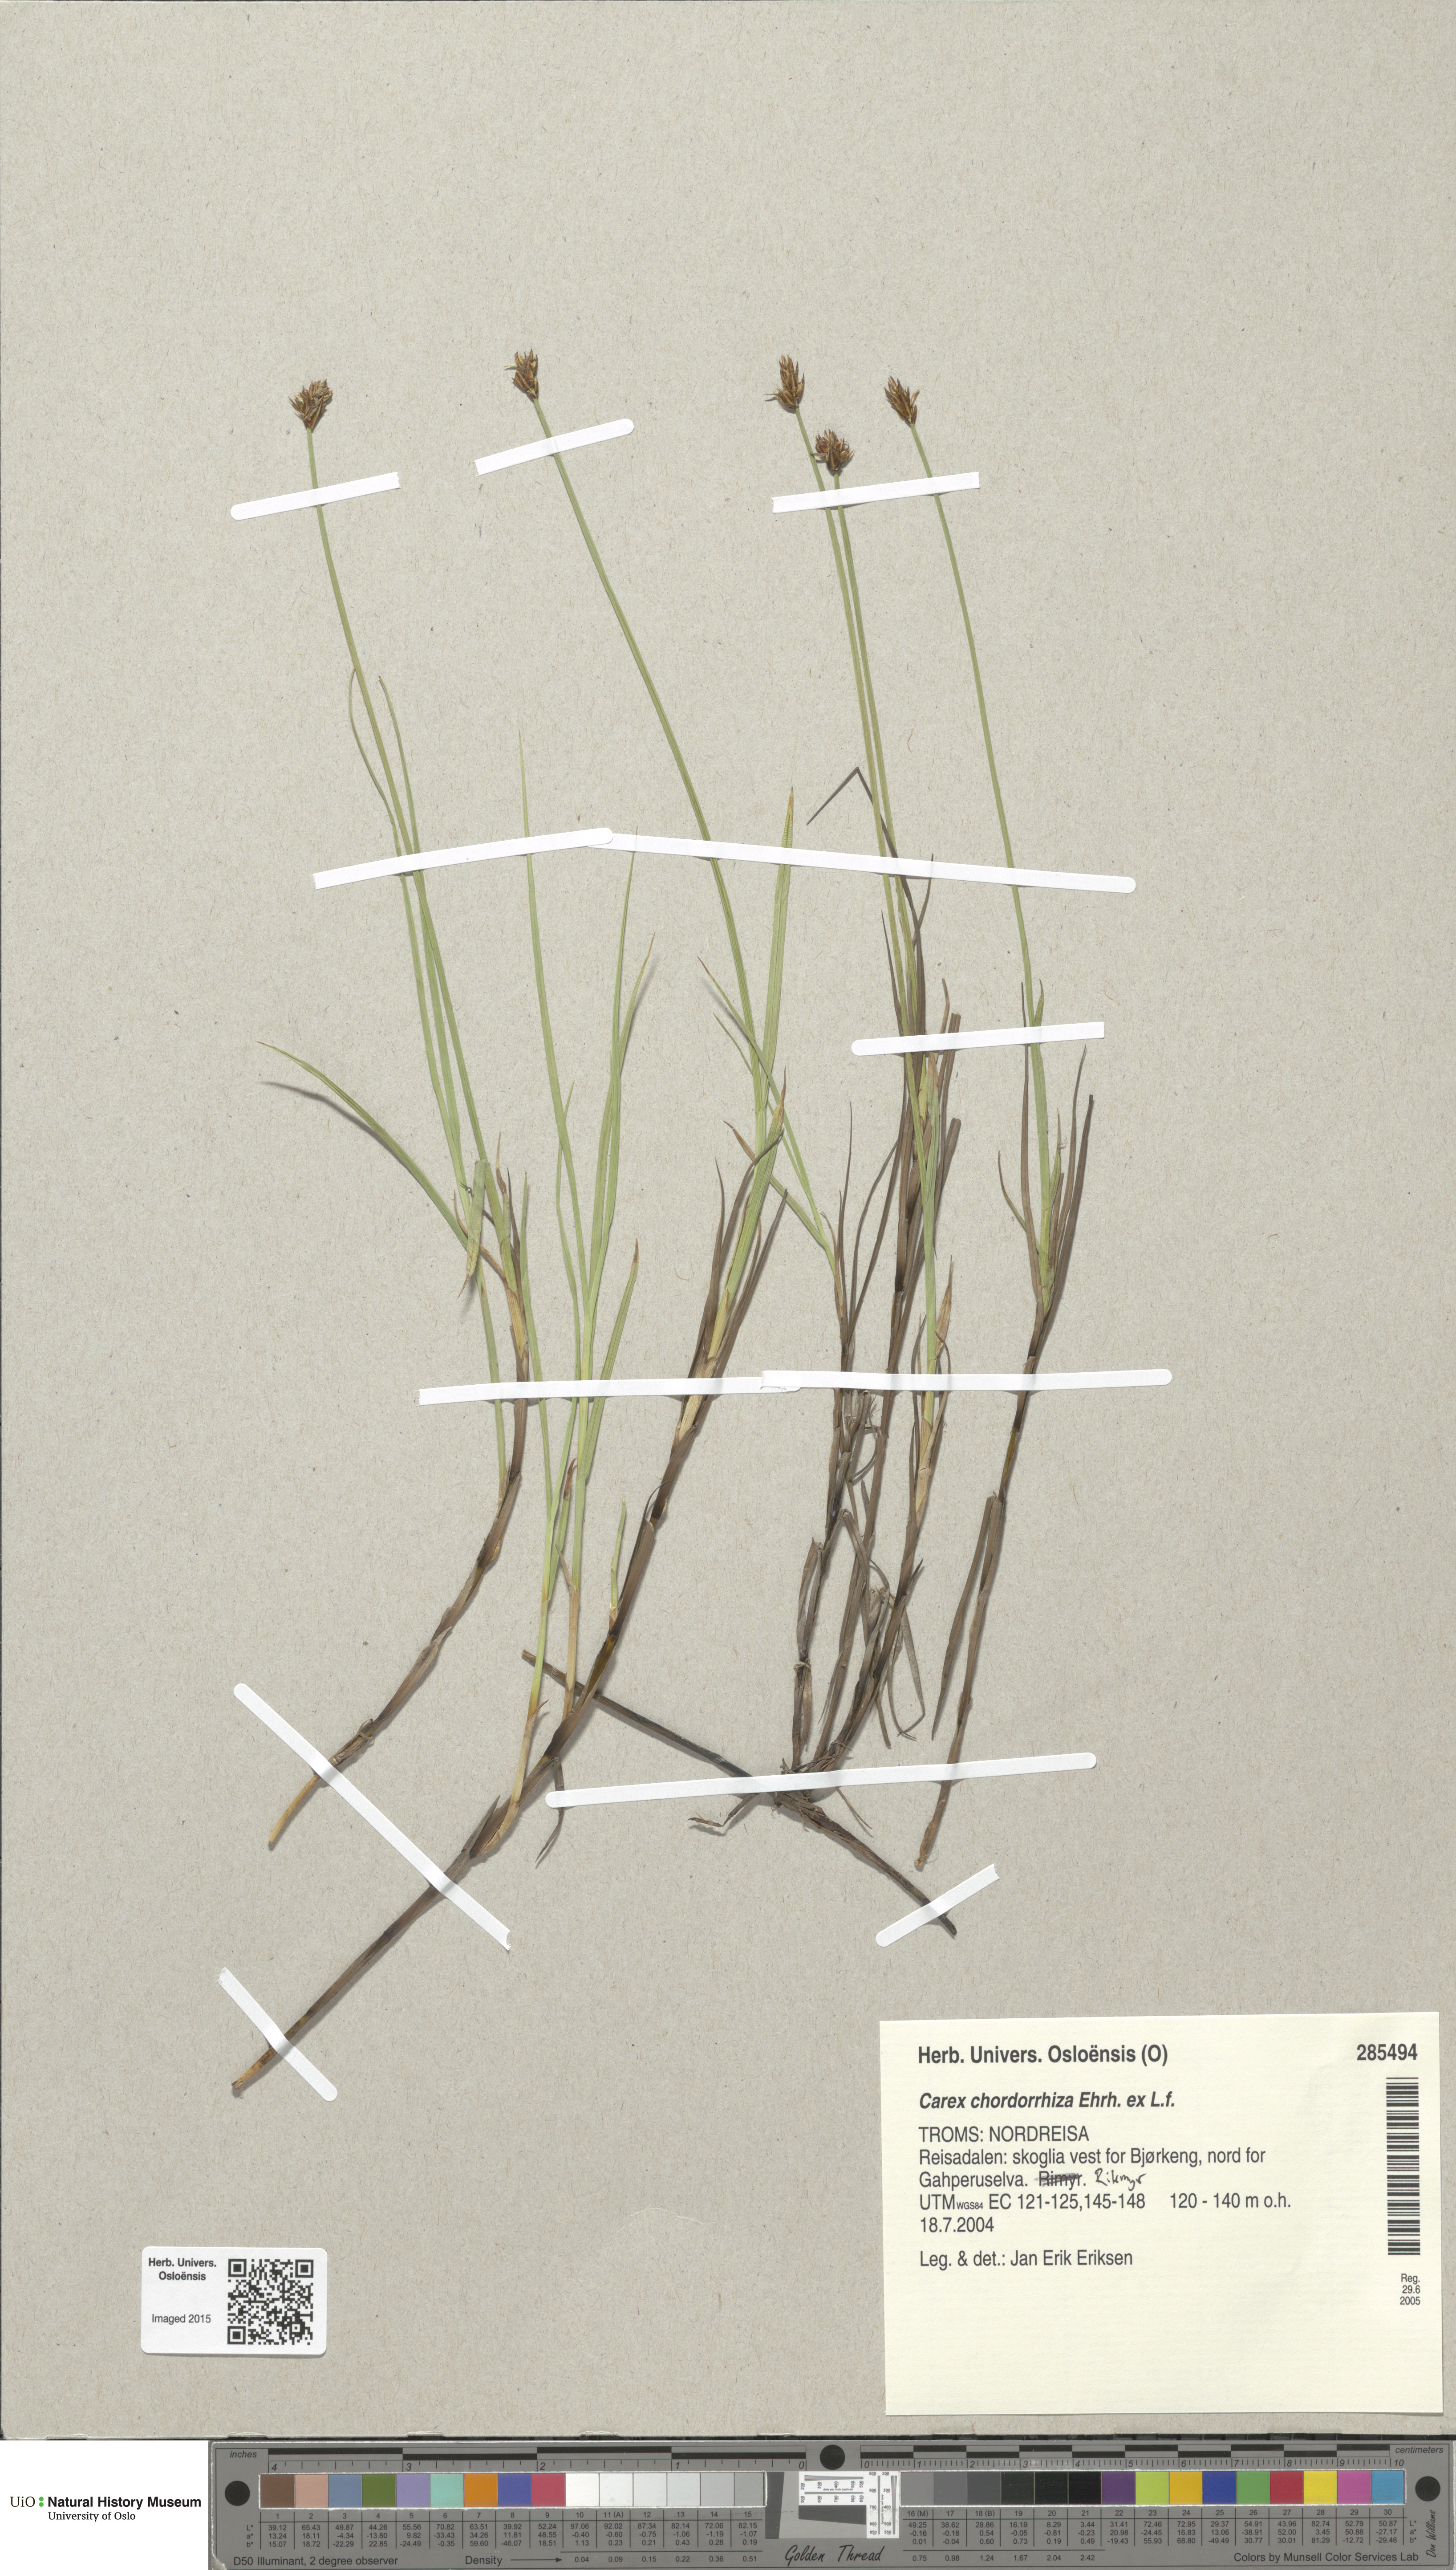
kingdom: Plantae
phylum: Tracheophyta
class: Liliopsida
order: Poales
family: Cyperaceae
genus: Carex
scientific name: Carex chordorrhiza
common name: String sedge
